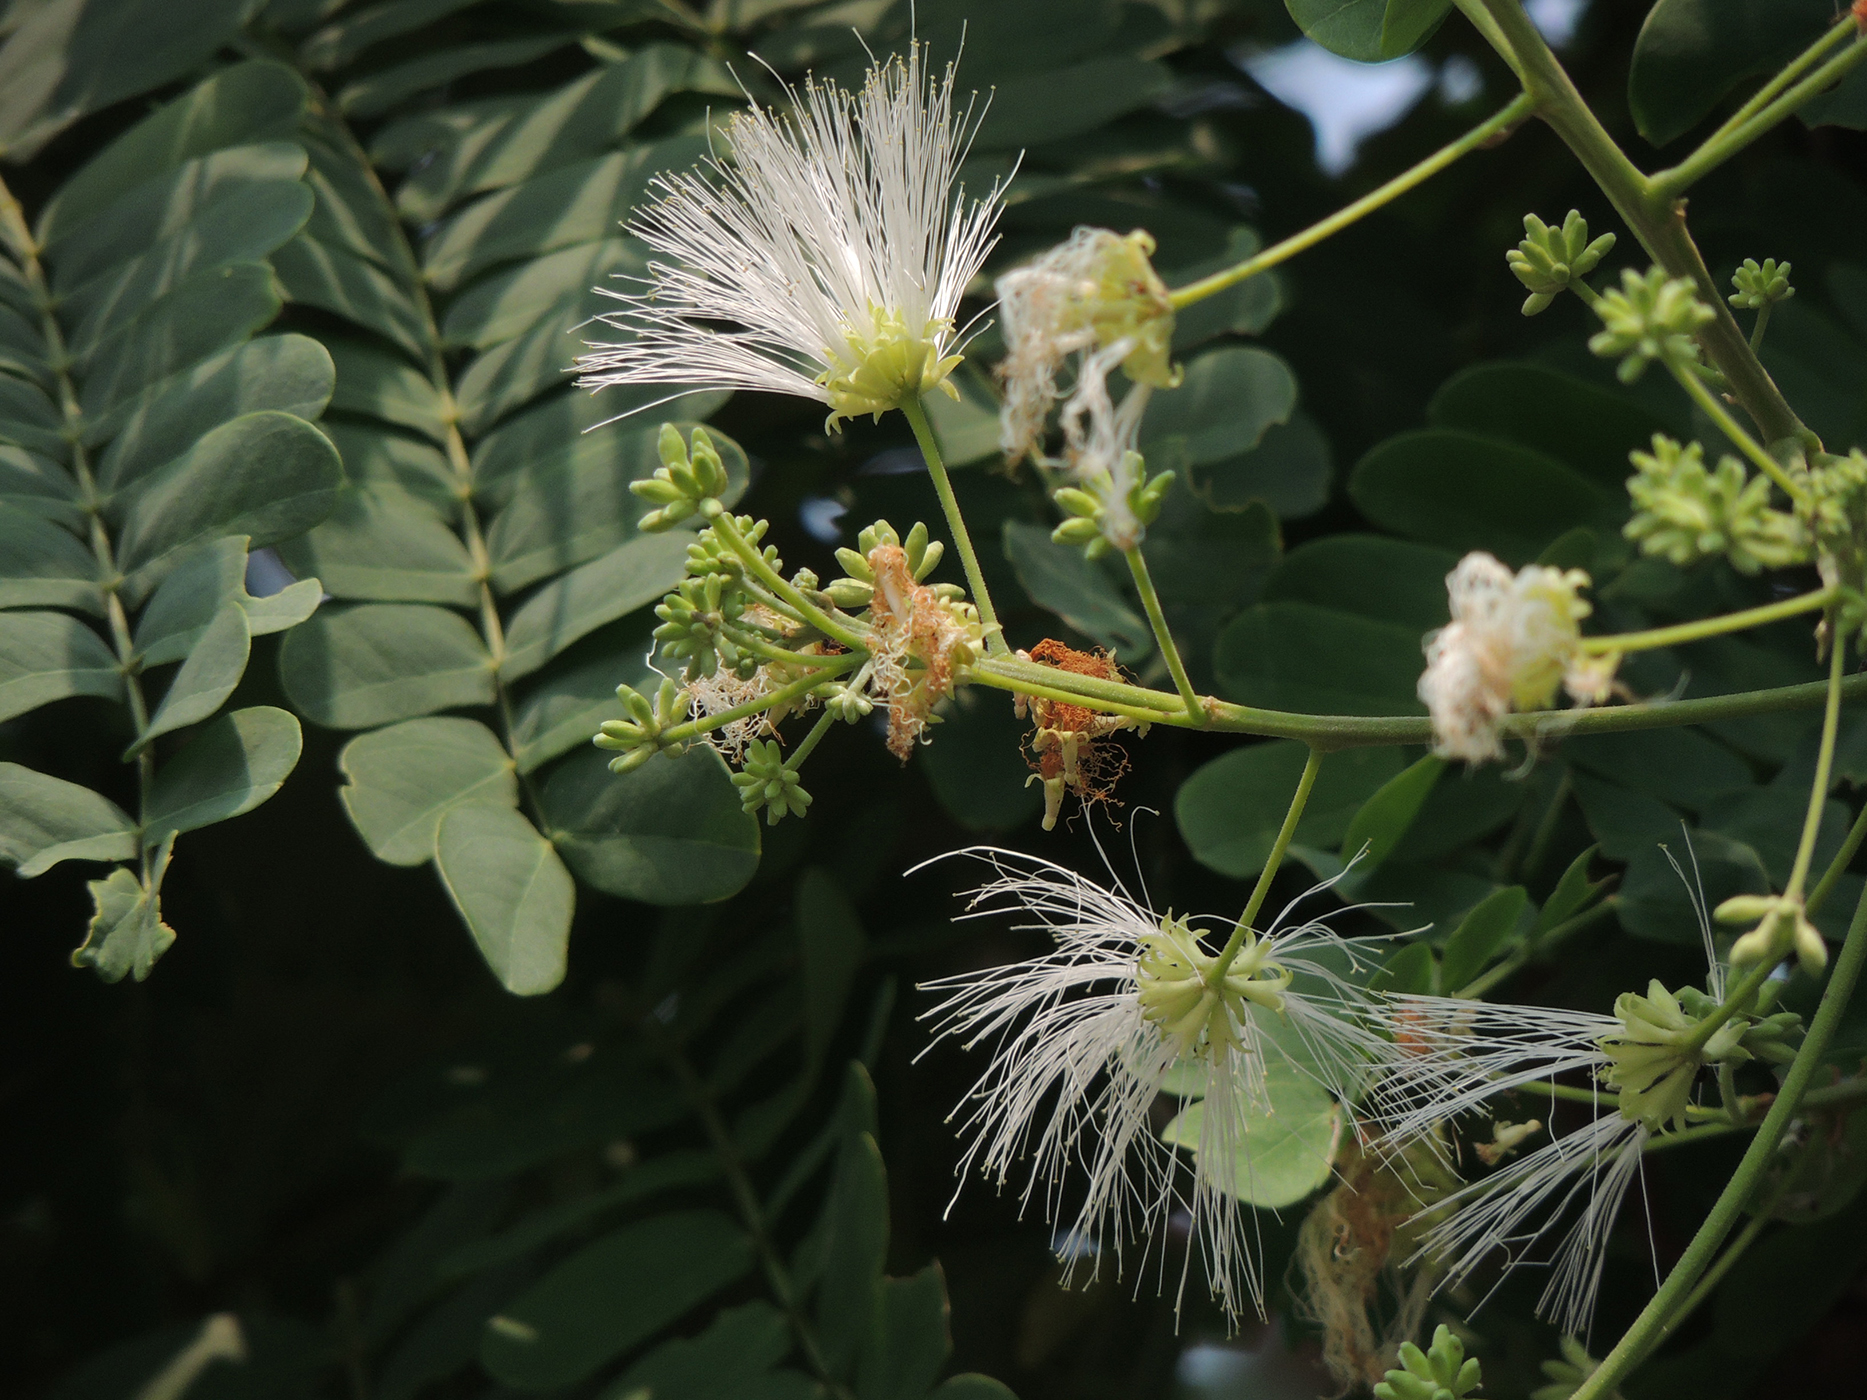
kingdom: Plantae
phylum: Tracheophyta
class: Magnoliopsida
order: Fabales
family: Fabaceae
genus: Albizia
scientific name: Albizia
